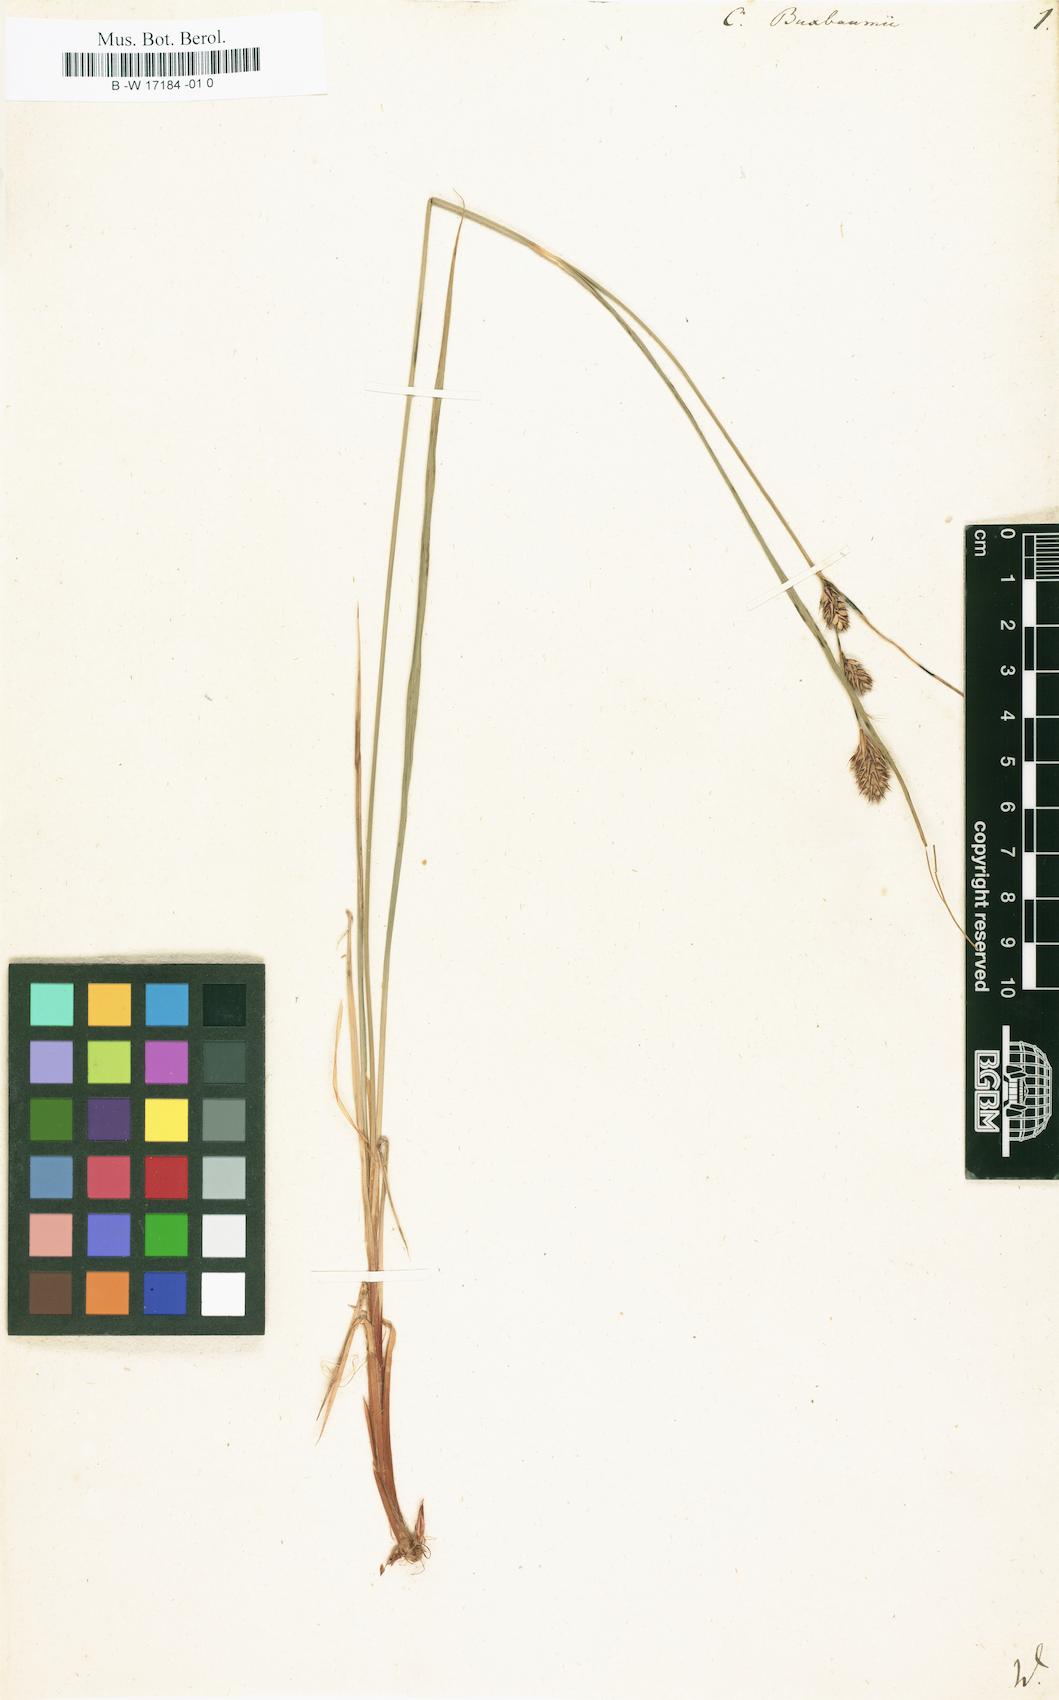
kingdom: Plantae
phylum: Tracheophyta
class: Liliopsida
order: Poales
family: Cyperaceae
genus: Carex
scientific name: Carex buxbaumii
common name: Club sedge
